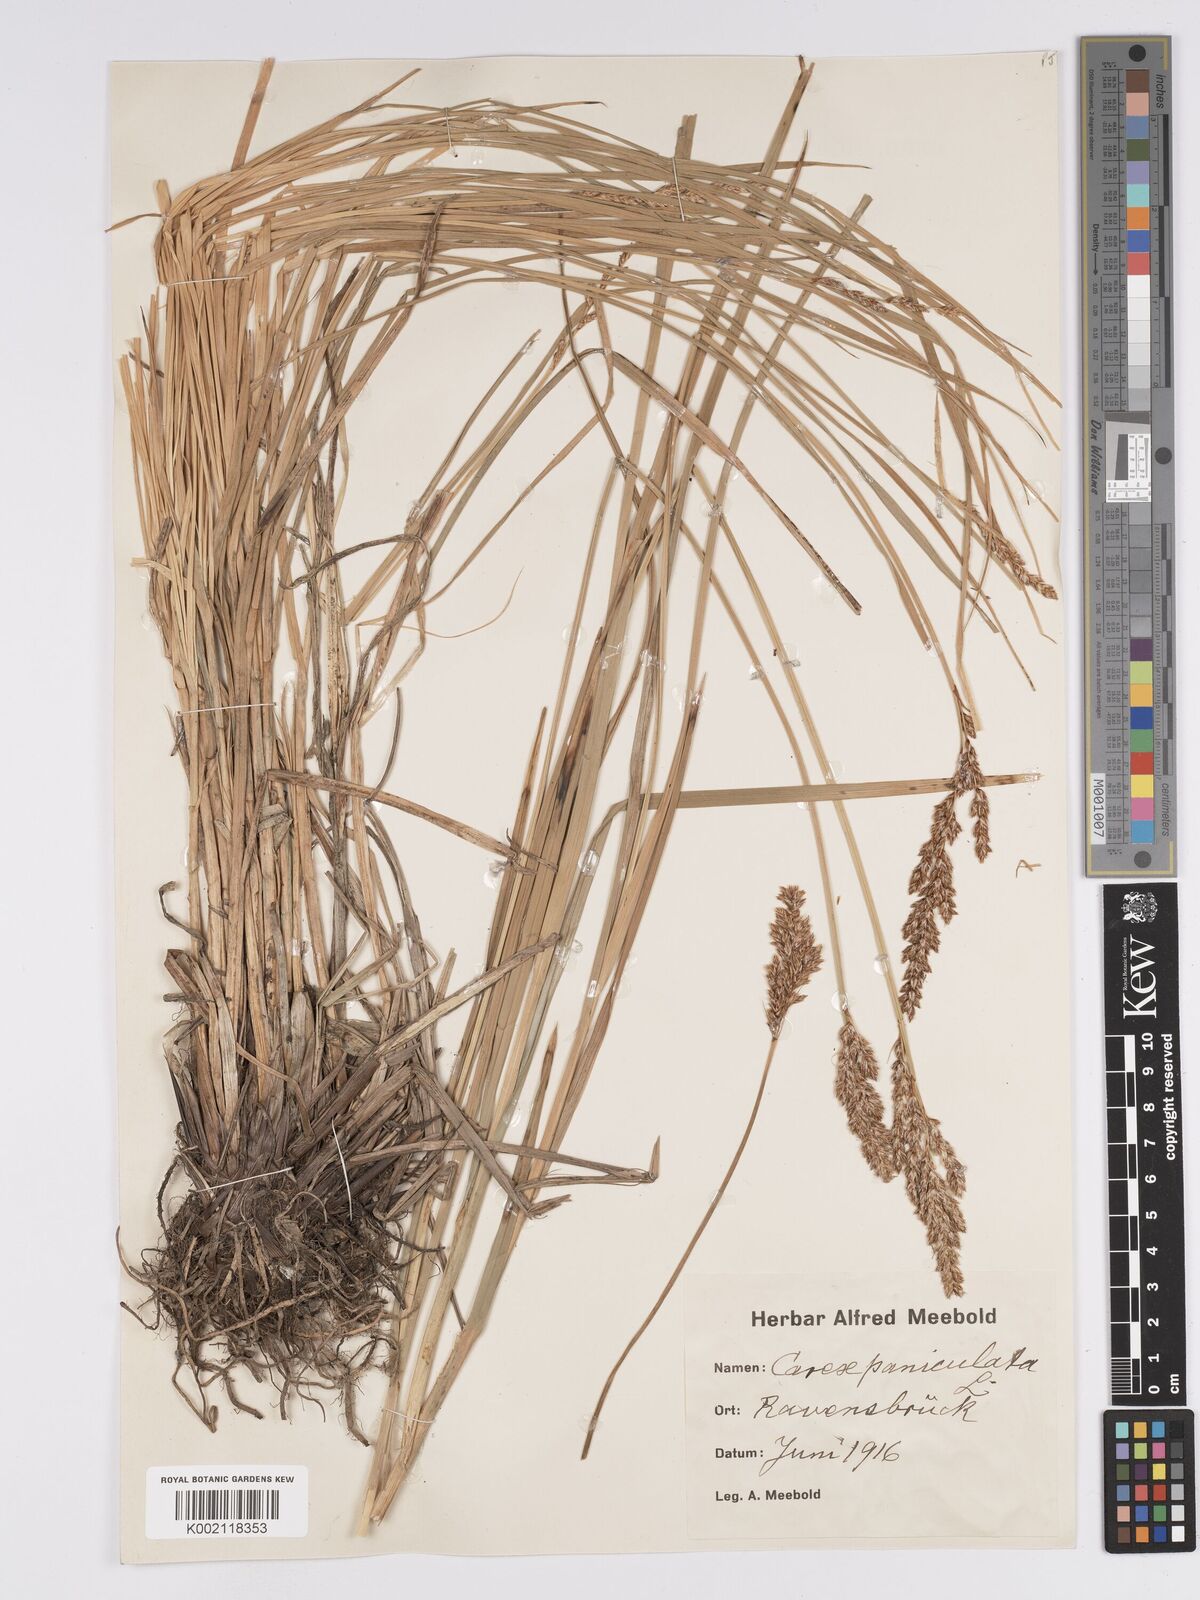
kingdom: Plantae
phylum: Tracheophyta
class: Liliopsida
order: Poales
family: Cyperaceae
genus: Carex
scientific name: Carex paniculata
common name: Greater tussock-sedge
